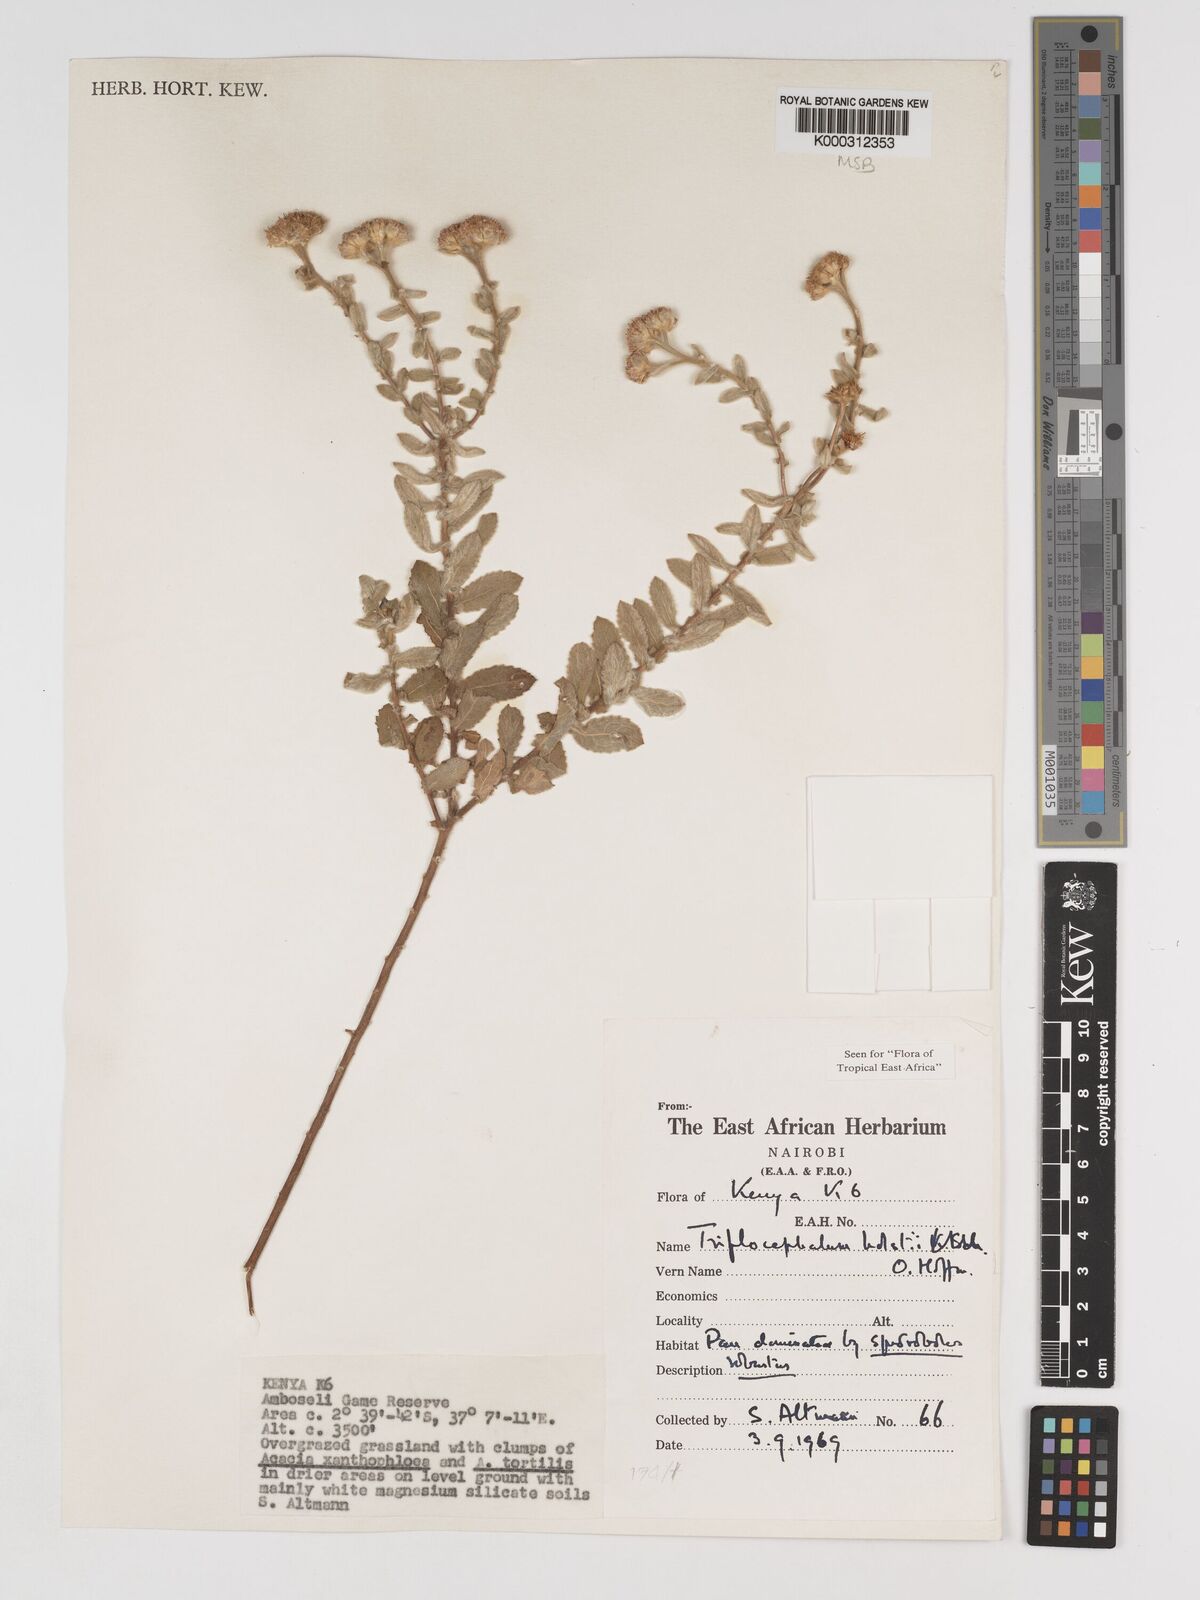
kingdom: Plantae
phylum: Tracheophyta
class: Magnoliopsida
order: Asterales
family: Asteraceae
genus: Triplocephalum
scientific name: Triplocephalum holstii
